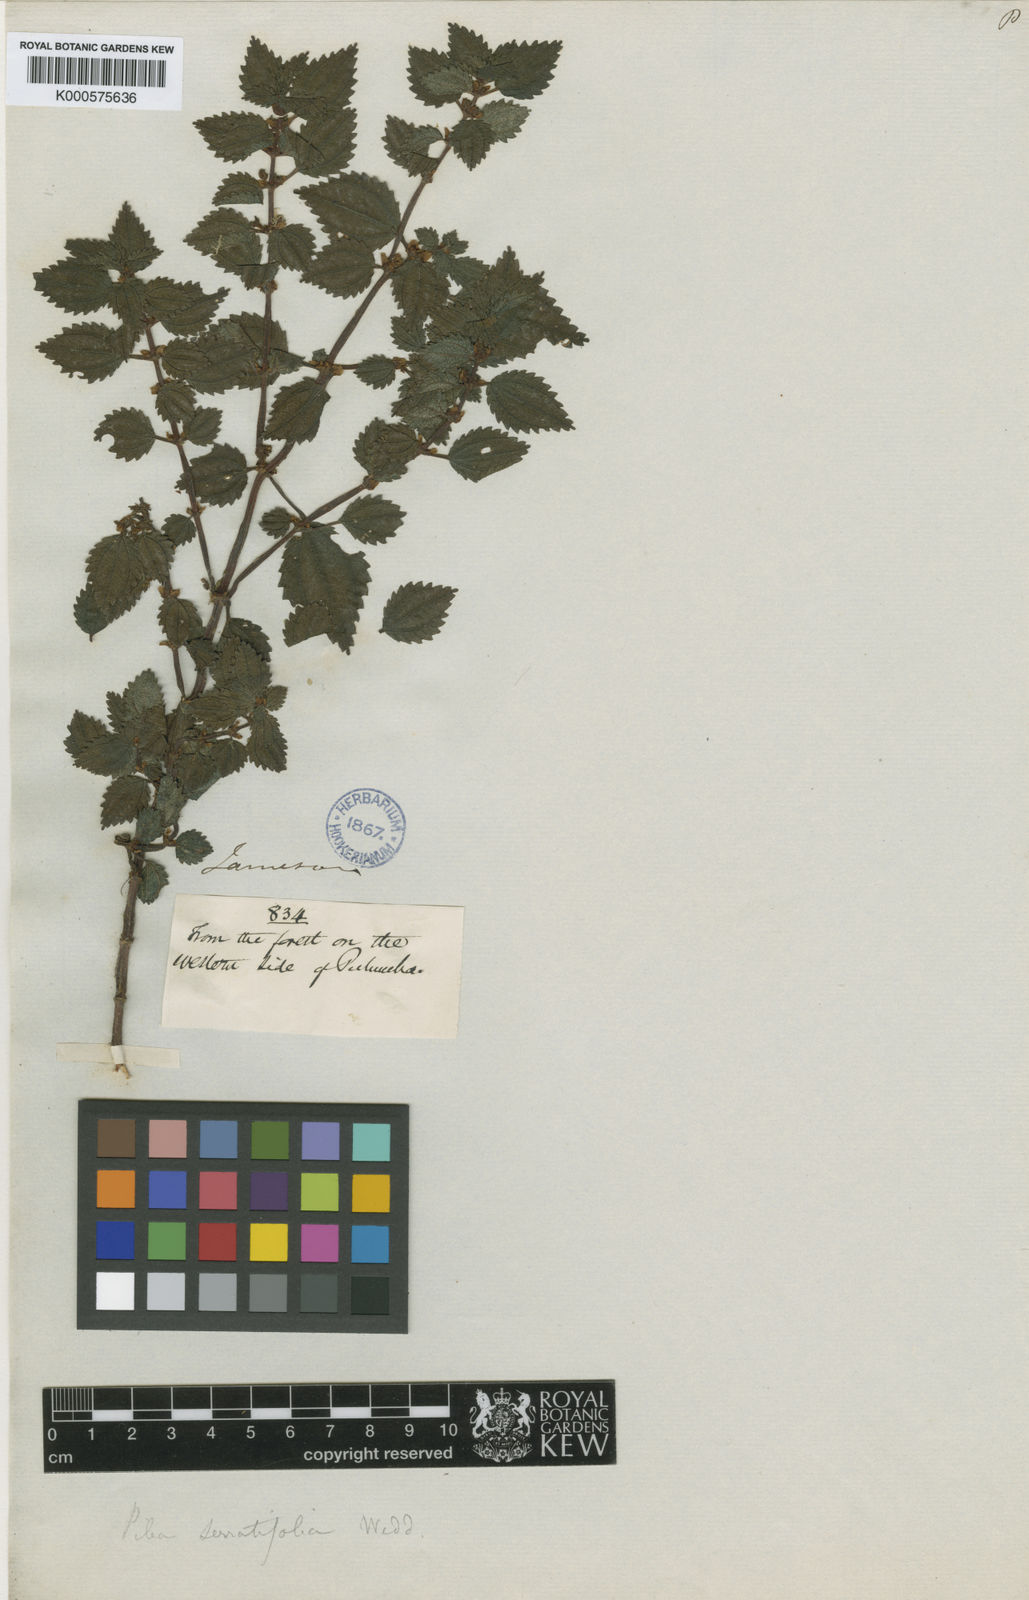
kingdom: Plantae
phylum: Tracheophyta
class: Magnoliopsida
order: Rosales
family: Urticaceae
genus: Pilea
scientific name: Pilea serratifolia
